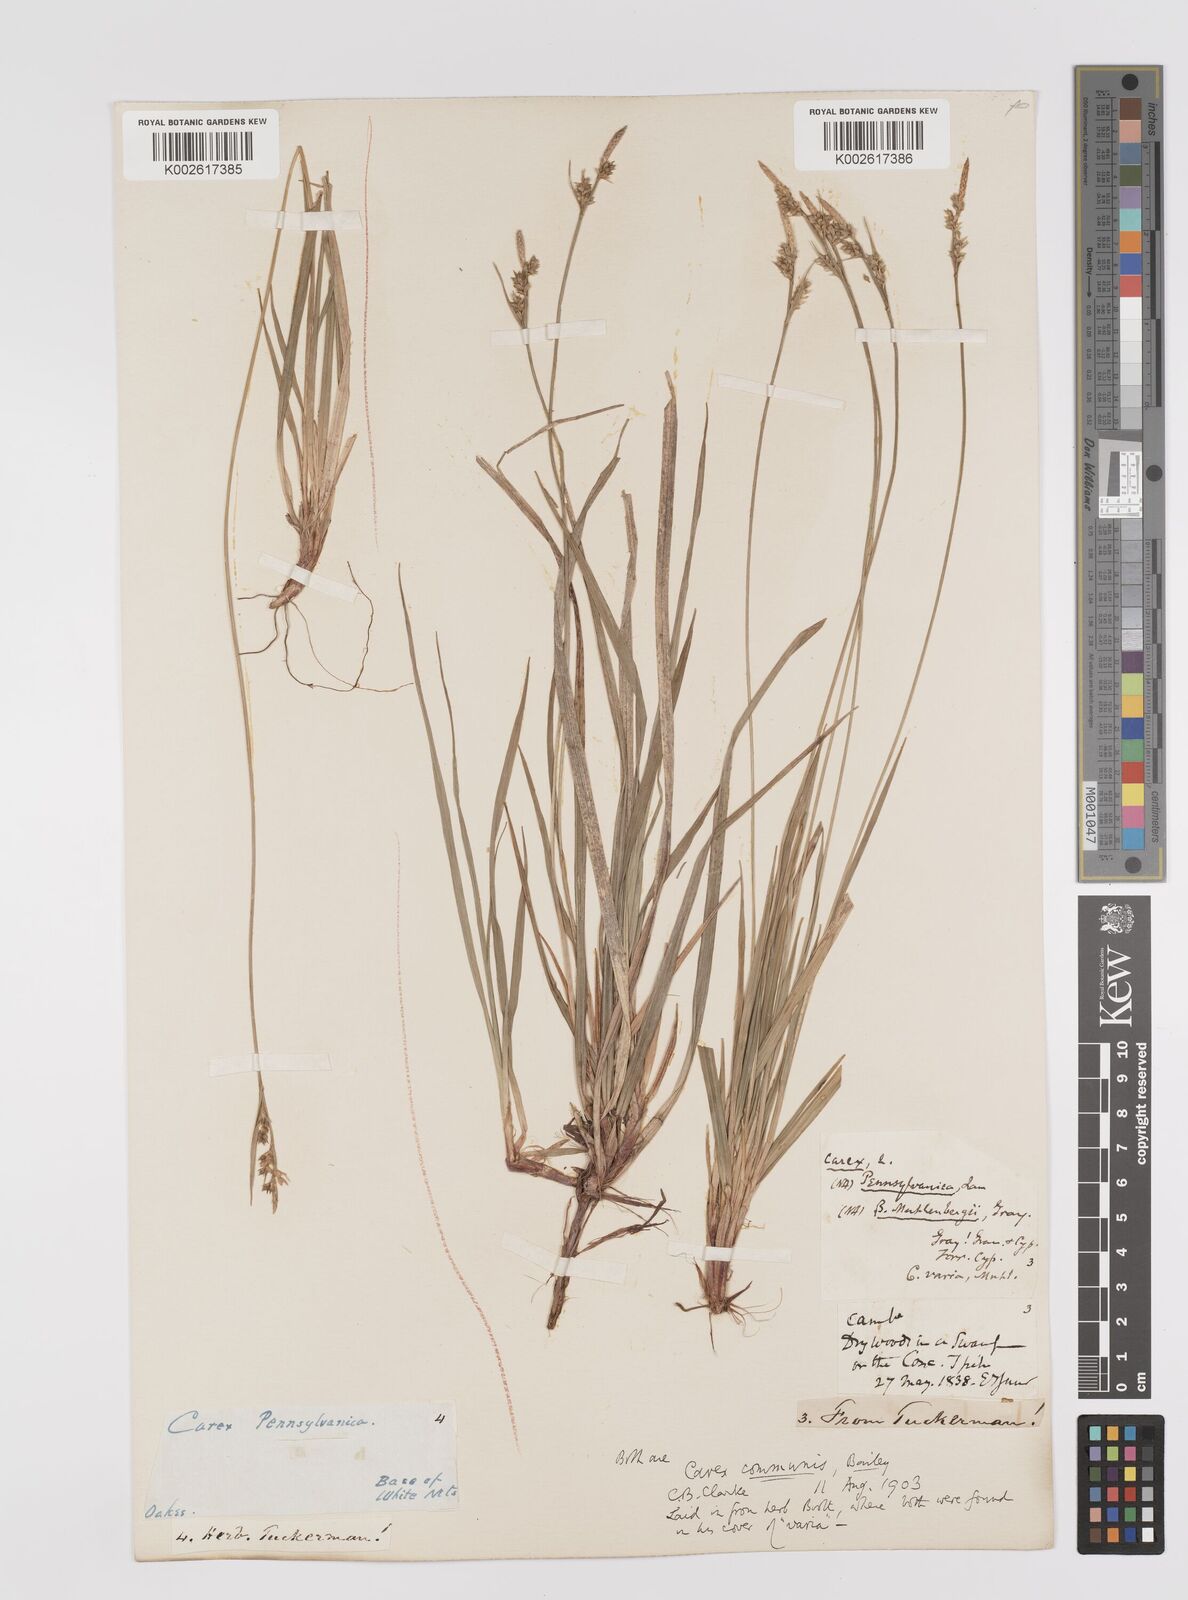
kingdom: Plantae
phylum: Tracheophyta
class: Liliopsida
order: Poales
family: Cyperaceae
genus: Carex
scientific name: Carex communis
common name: Colonial oak sedge
